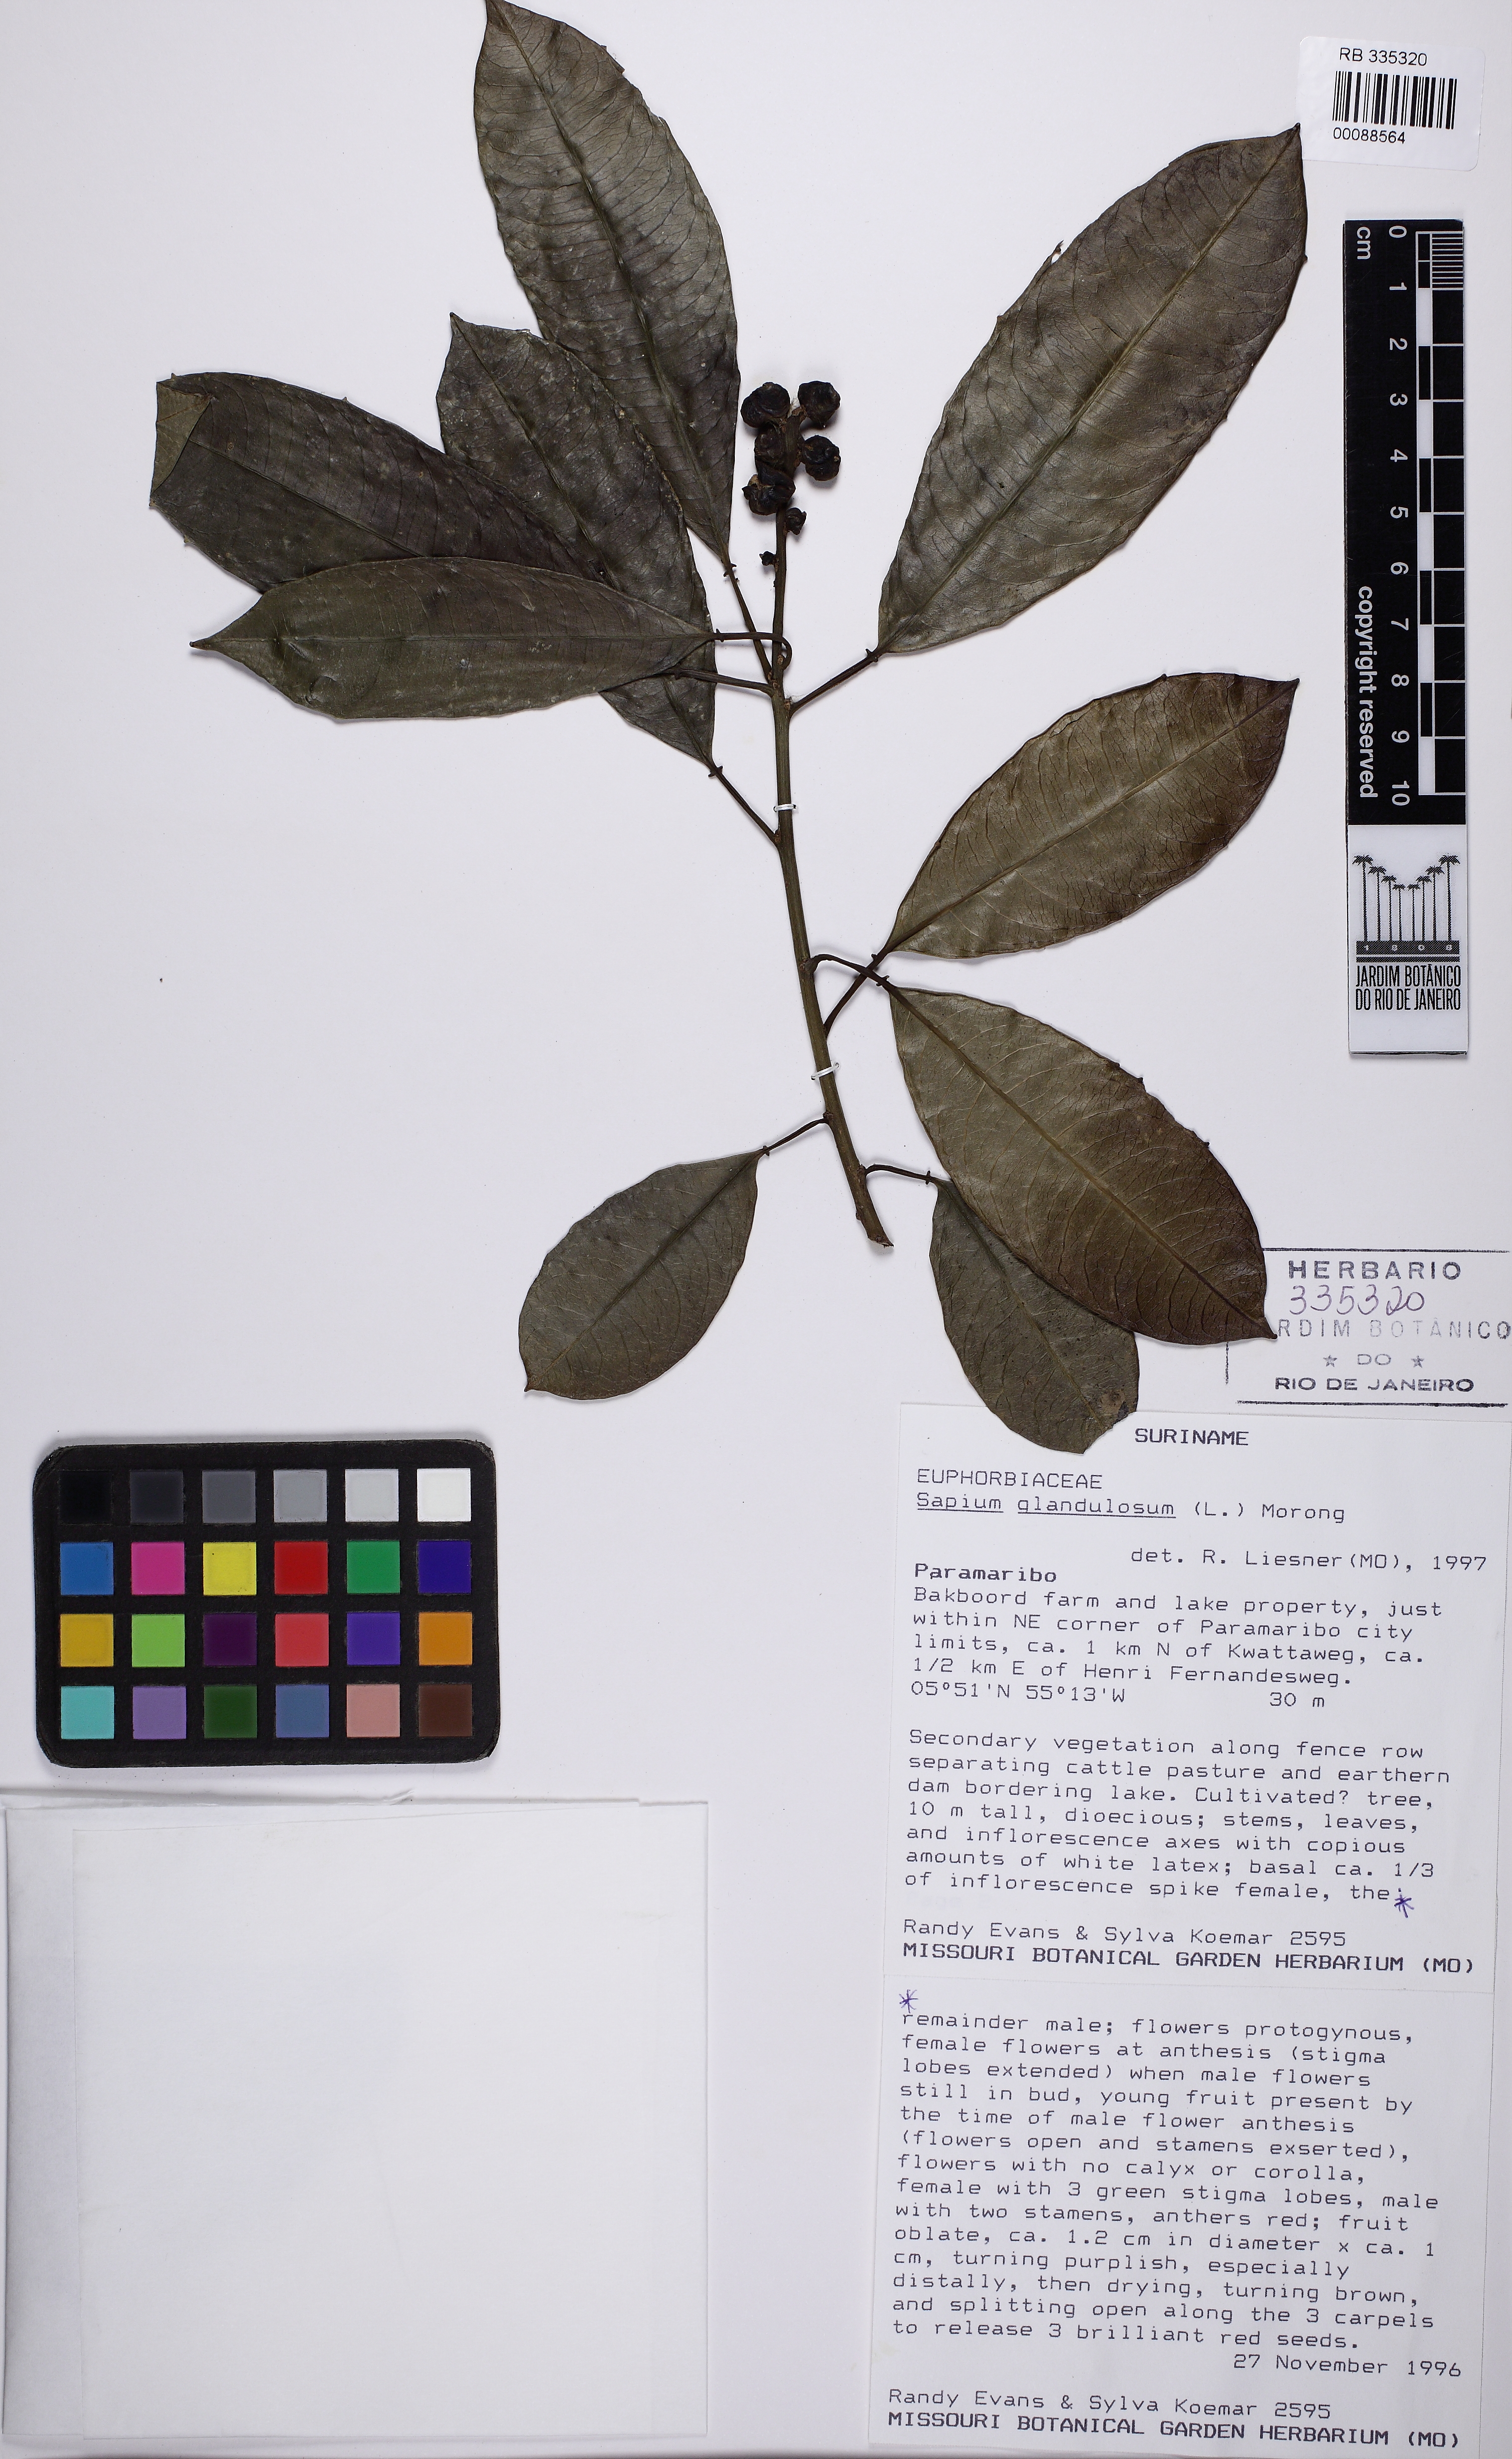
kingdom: Plantae
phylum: Tracheophyta
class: Magnoliopsida
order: Malpighiales
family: Euphorbiaceae
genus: Sapium
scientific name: Sapium glandulosum
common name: Milktree
